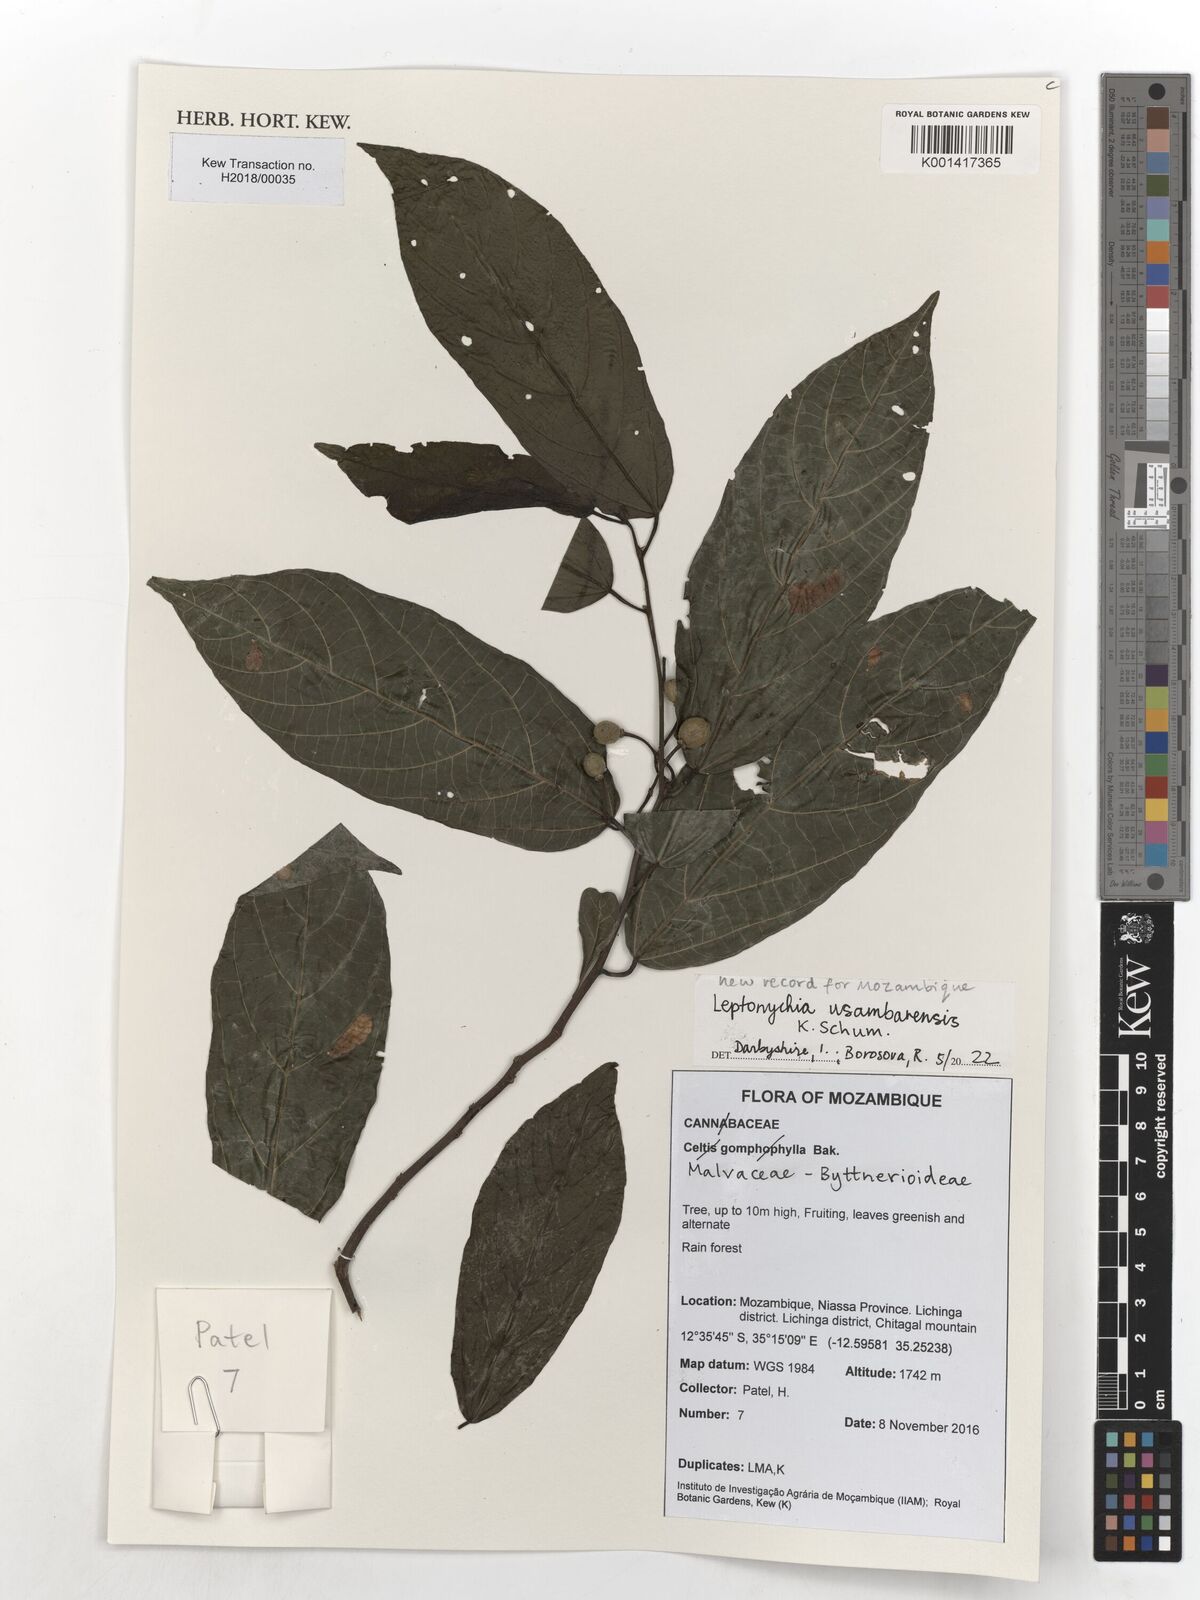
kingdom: Plantae
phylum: Tracheophyta
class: Magnoliopsida
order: Malvales
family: Malvaceae
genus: Leptonychia
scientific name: Leptonychia usambarensis
